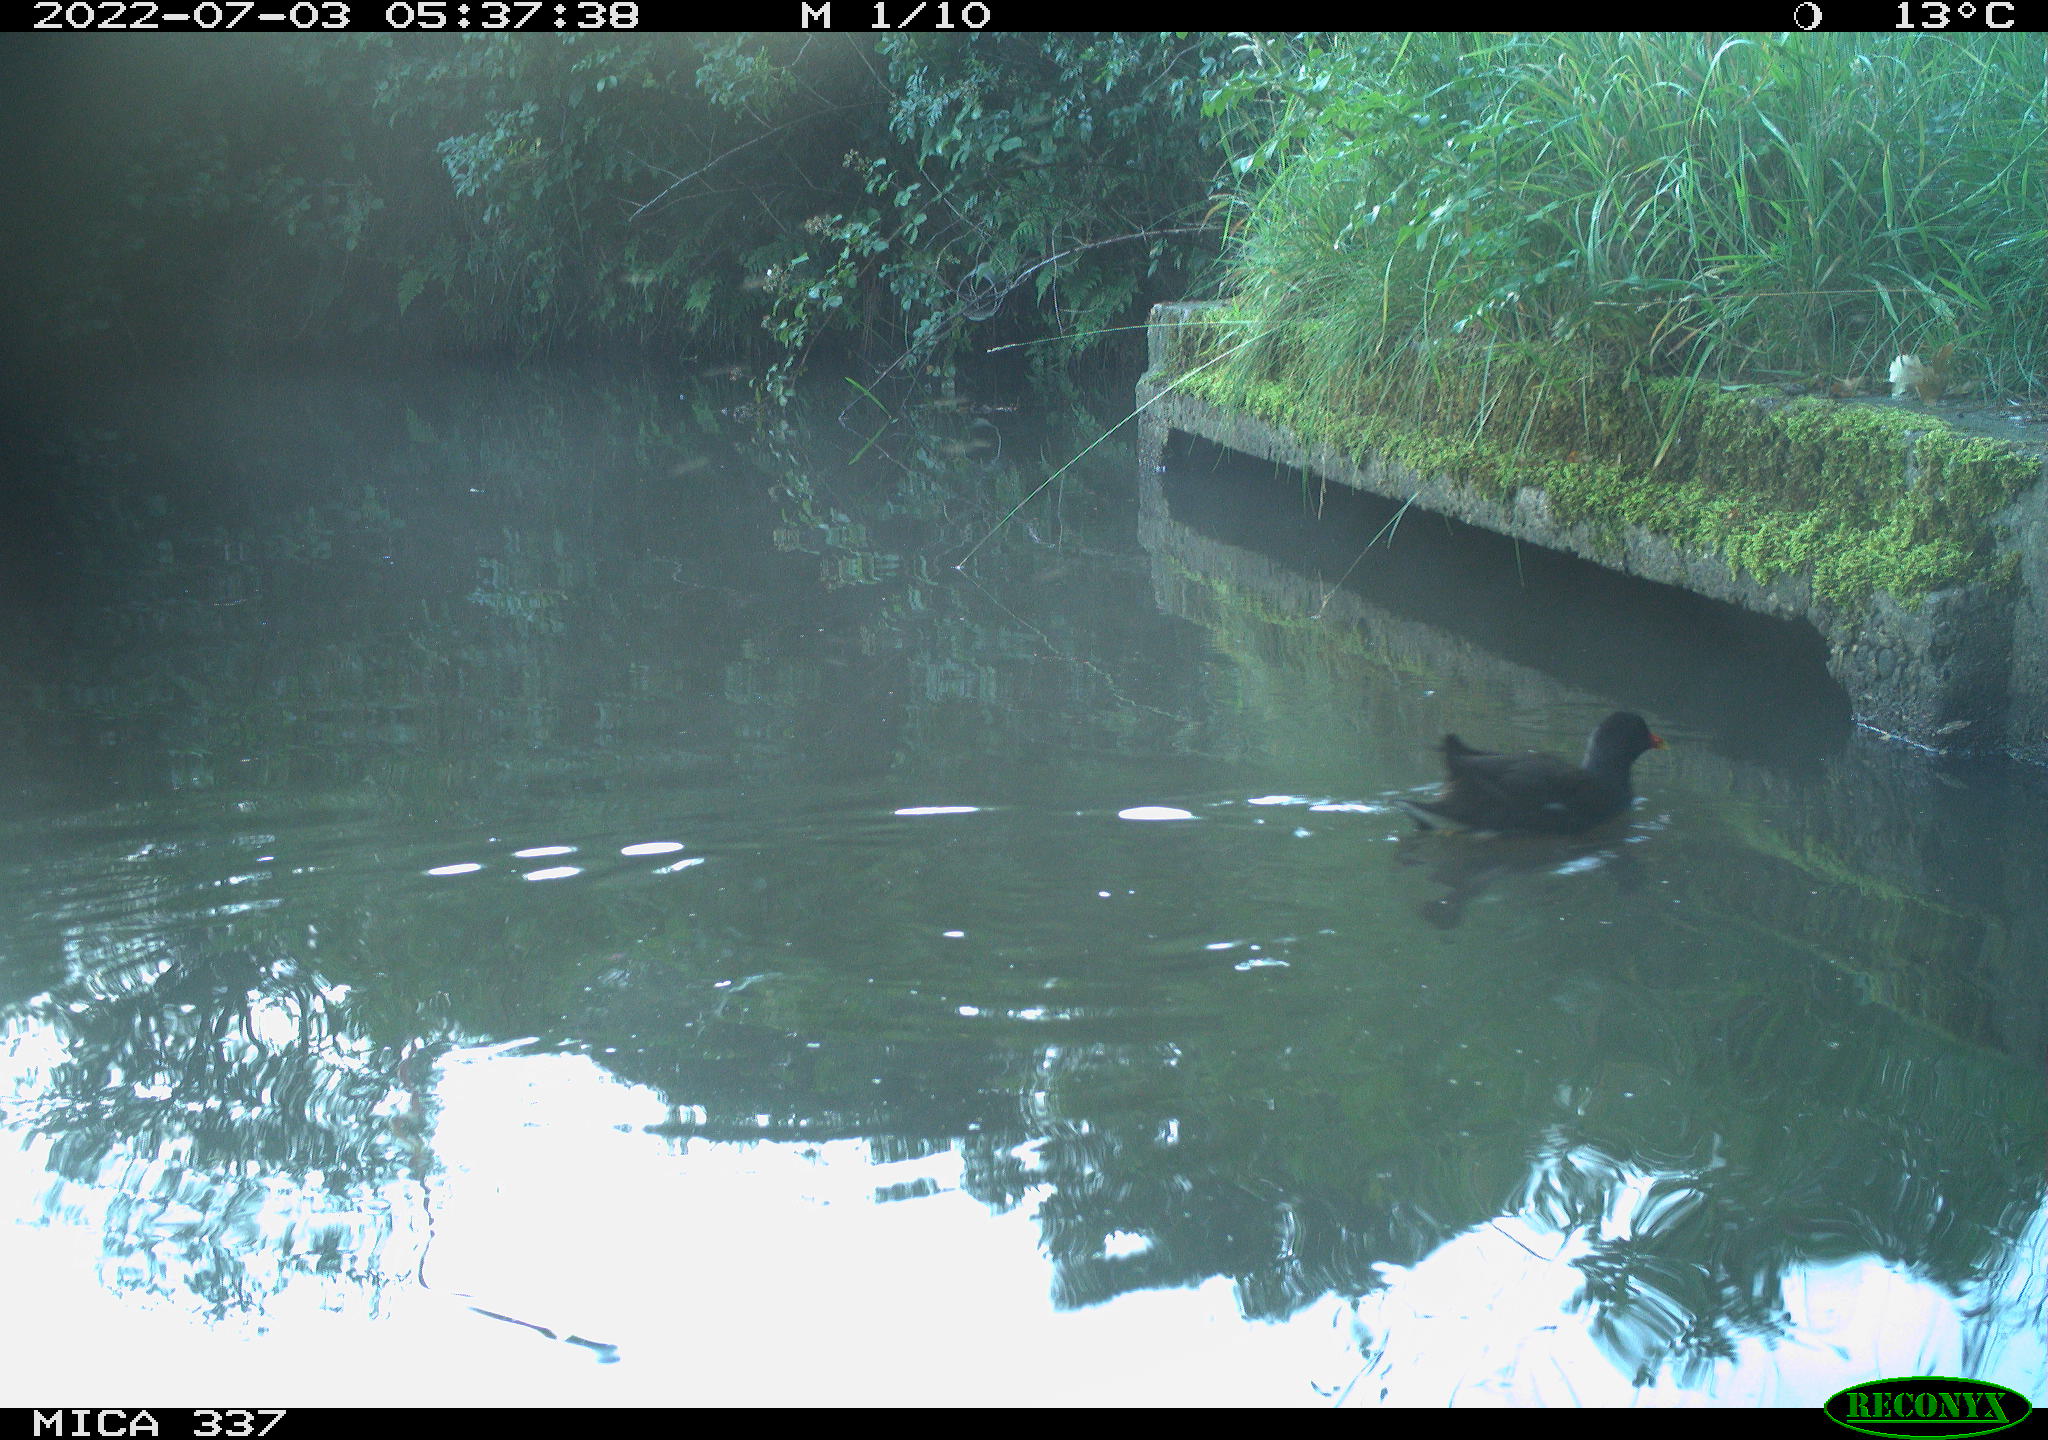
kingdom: Animalia
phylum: Chordata
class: Aves
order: Gruiformes
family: Rallidae
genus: Gallinula
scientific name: Gallinula chloropus
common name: Common moorhen
